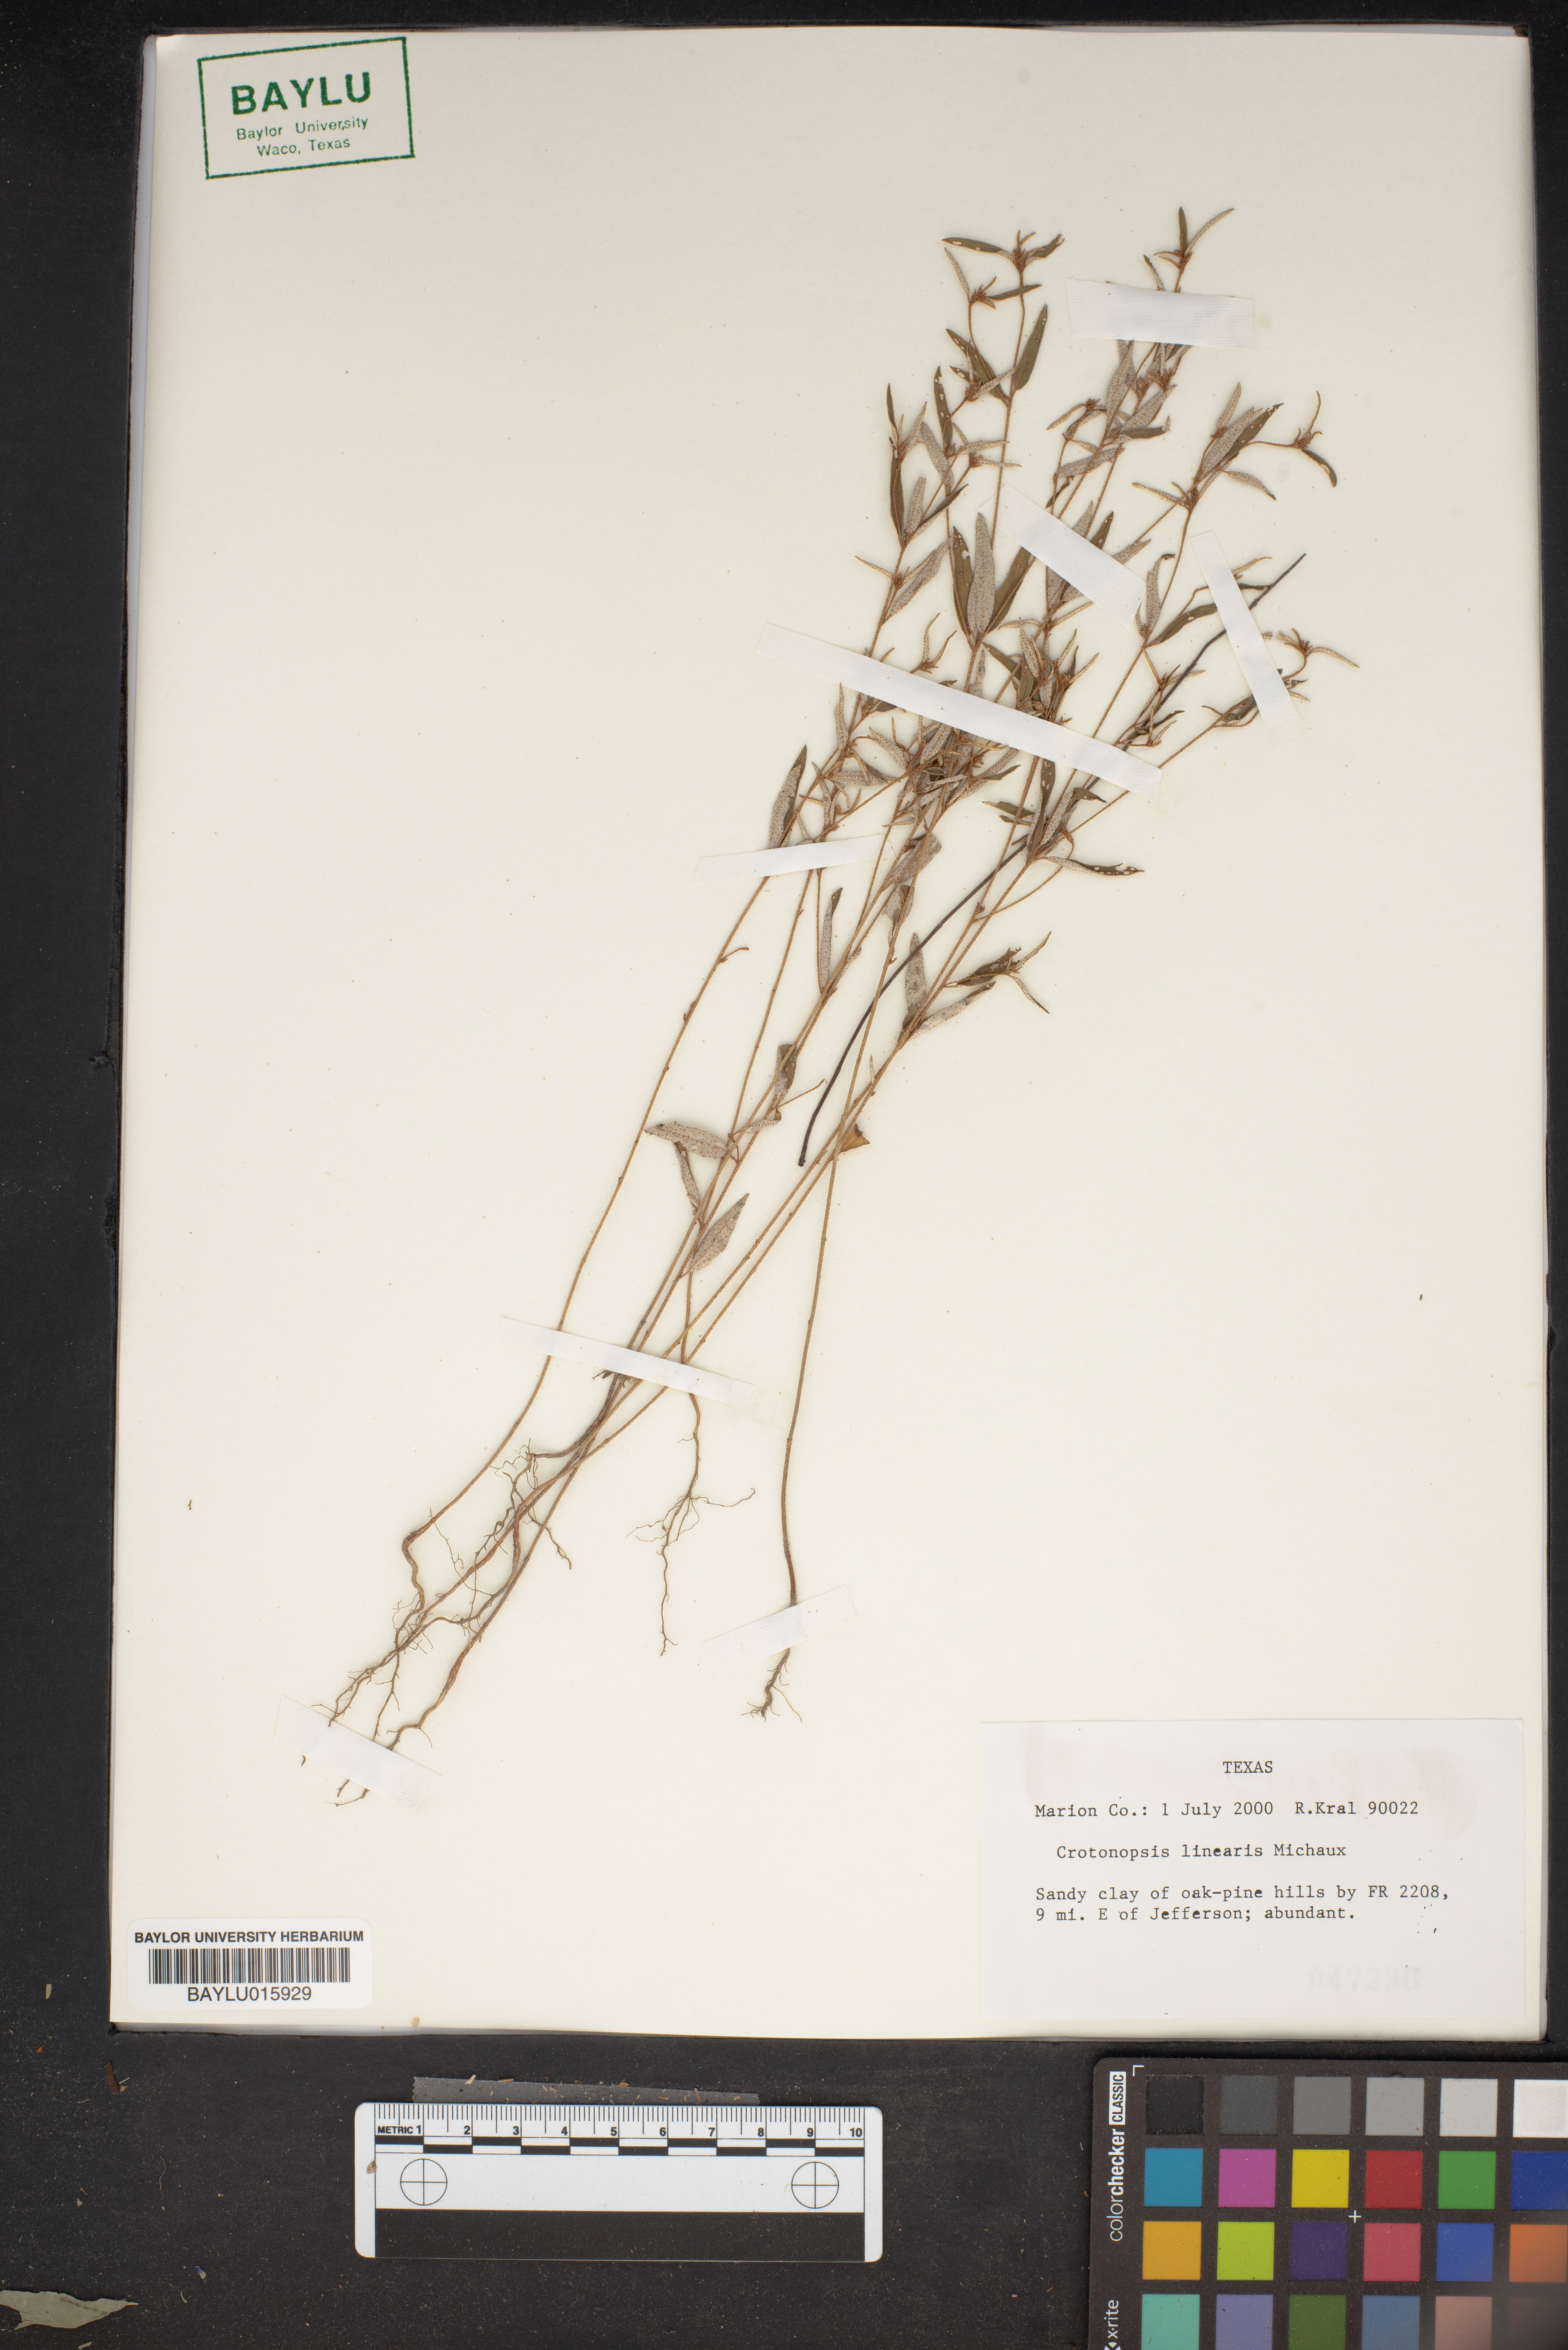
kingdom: Plantae
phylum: Tracheophyta
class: Magnoliopsida
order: Malpighiales
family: Euphorbiaceae
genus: Croton
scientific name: Croton michauxii
